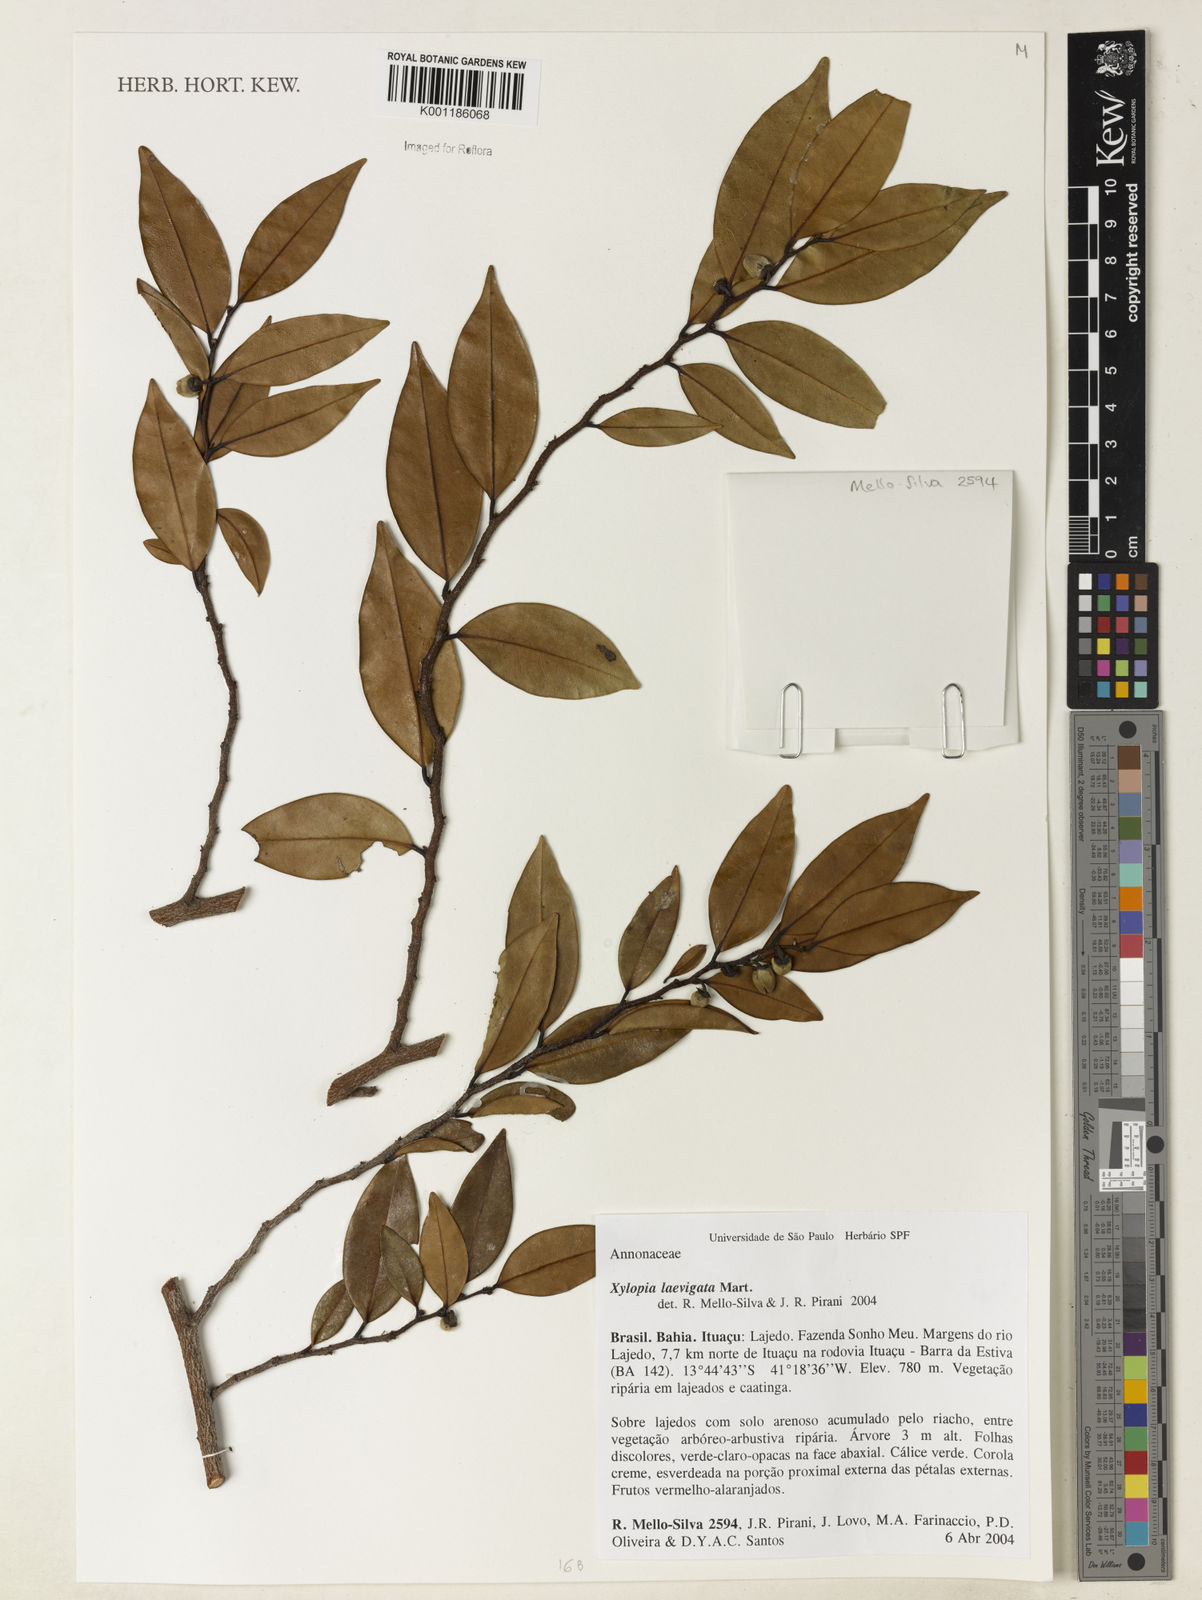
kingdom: Plantae
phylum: Tracheophyta
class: Magnoliopsida
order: Magnoliales
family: Annonaceae
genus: Xylopia
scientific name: Xylopia laevigata
